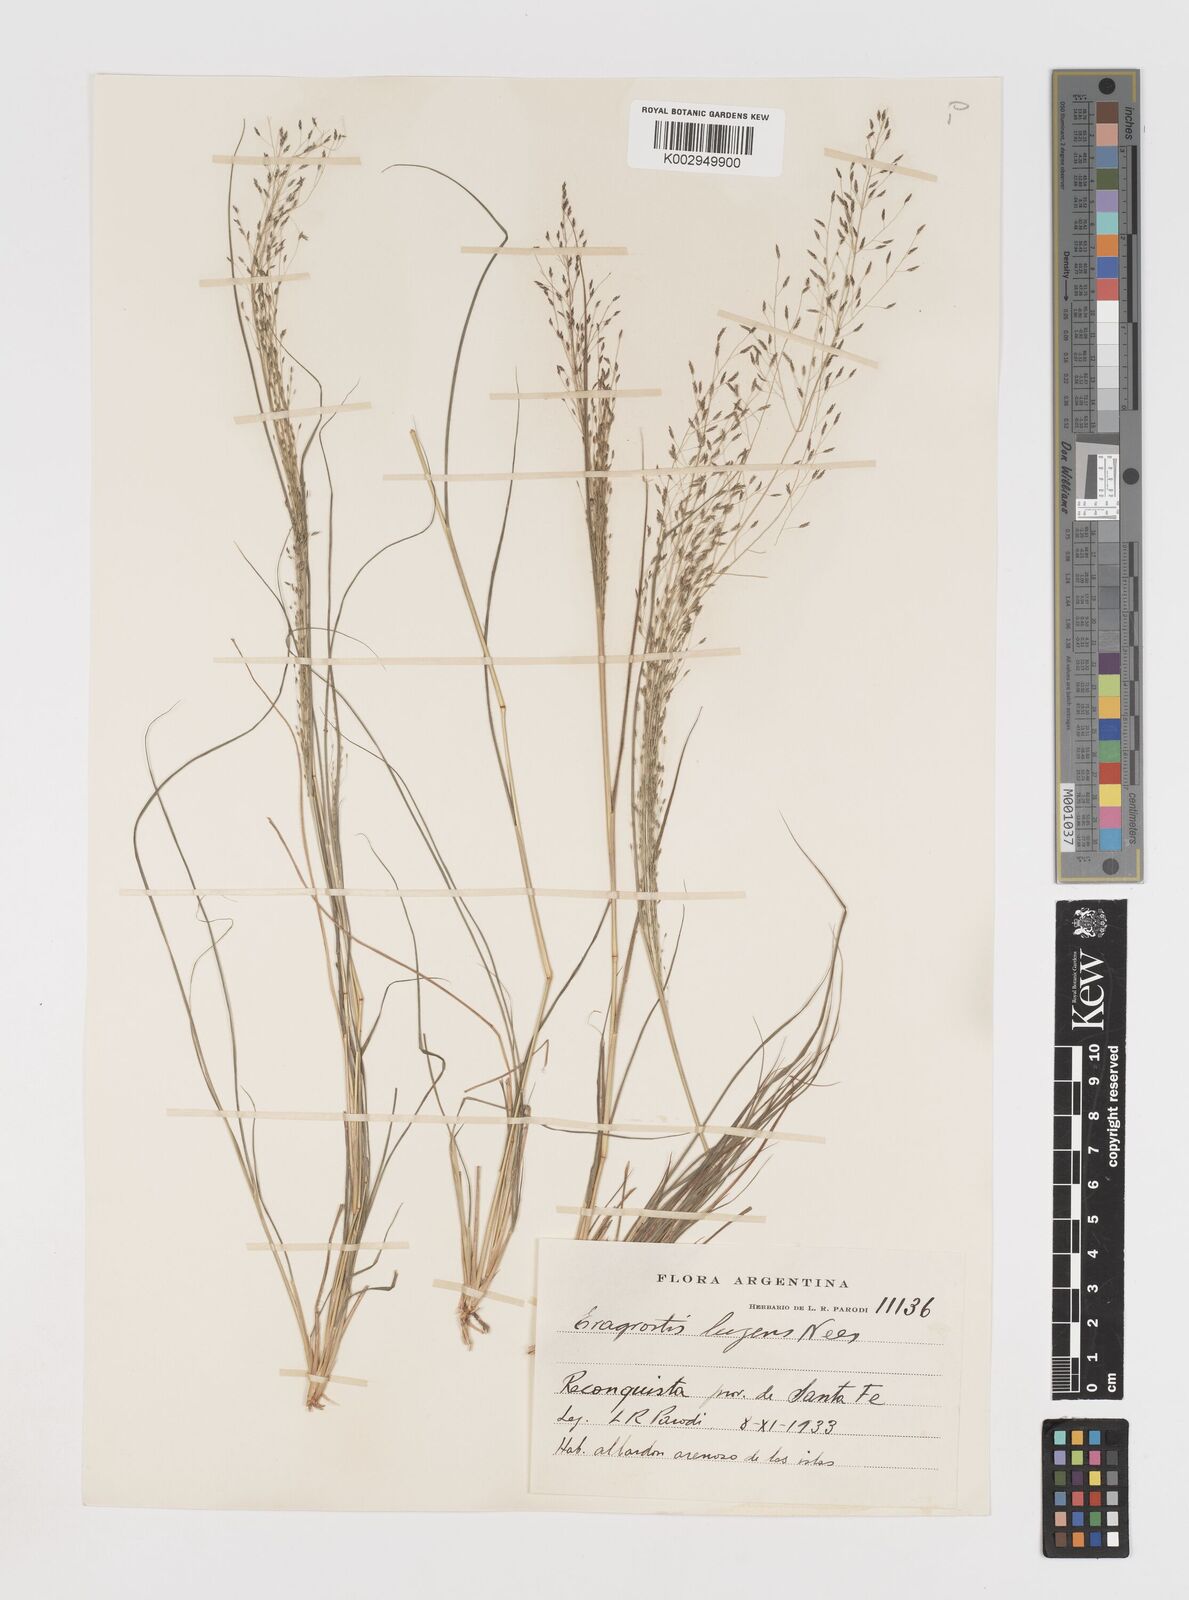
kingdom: Plantae
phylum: Tracheophyta
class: Liliopsida
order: Poales
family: Poaceae
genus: Eragrostis
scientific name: Eragrostis lugens
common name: Mourning love grass
